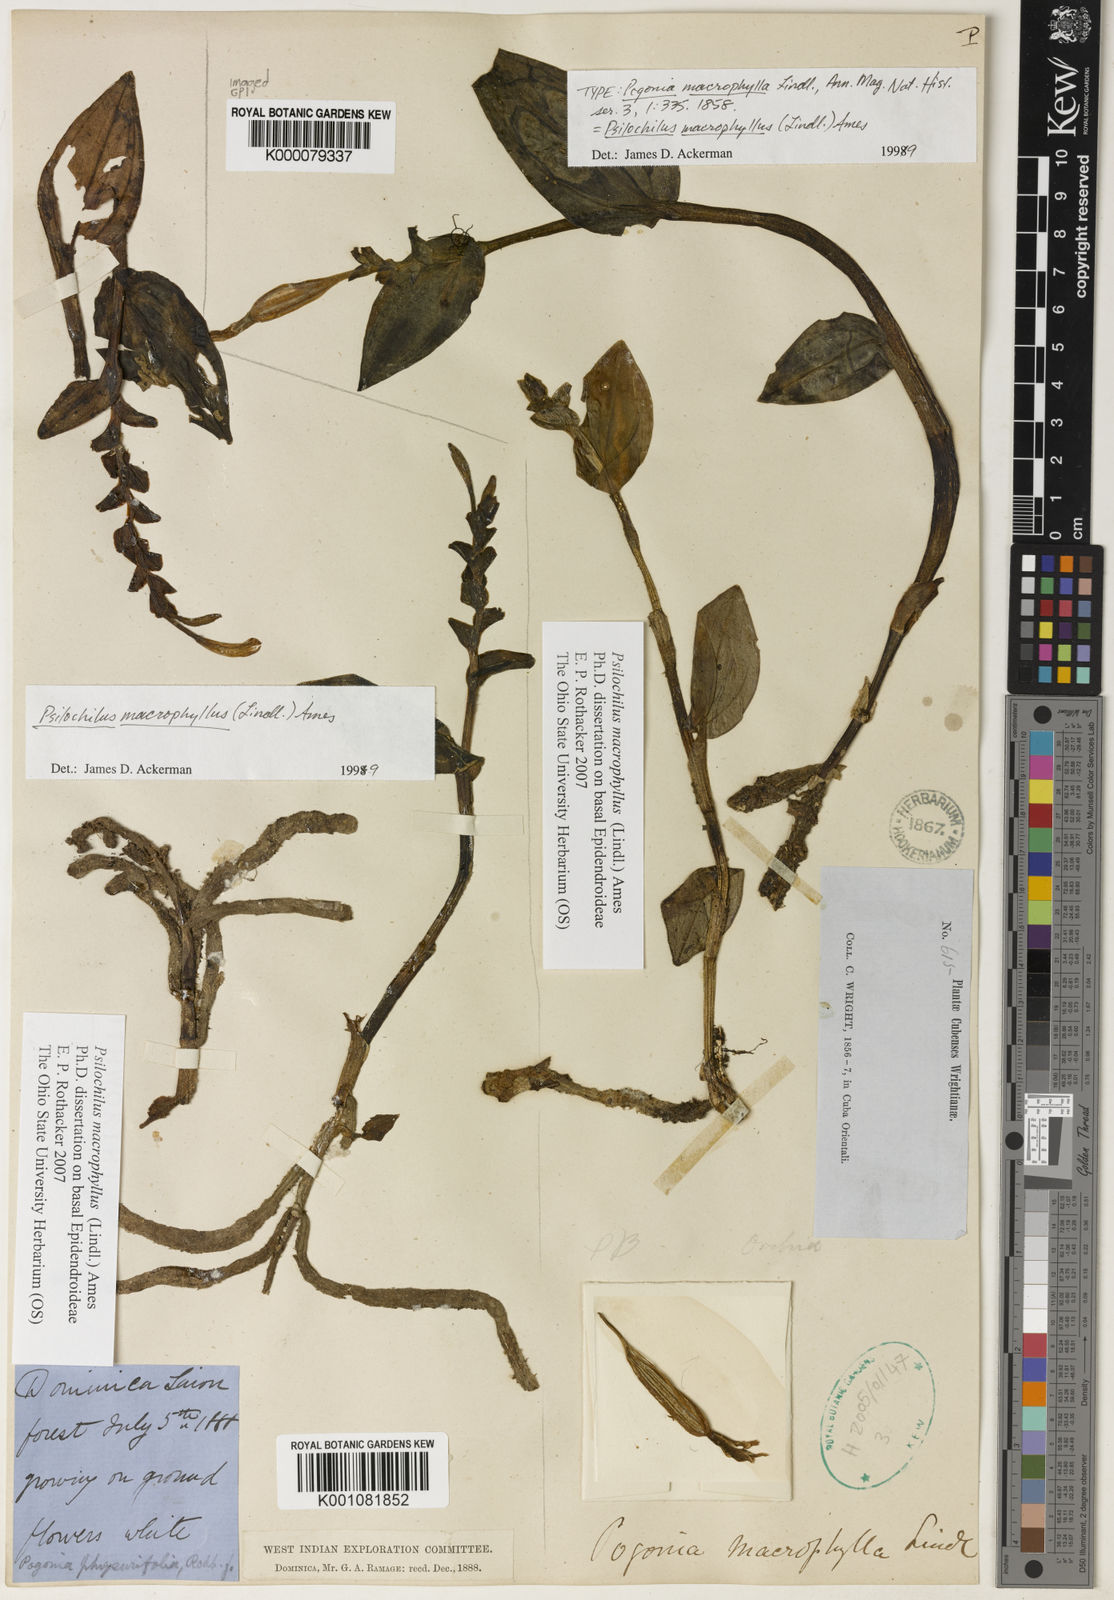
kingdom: Plantae
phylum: Tracheophyta
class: Liliopsida
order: Asparagales
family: Orchidaceae
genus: Psilochilus
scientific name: Psilochilus macrophyllus
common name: Raggedlip orchid
